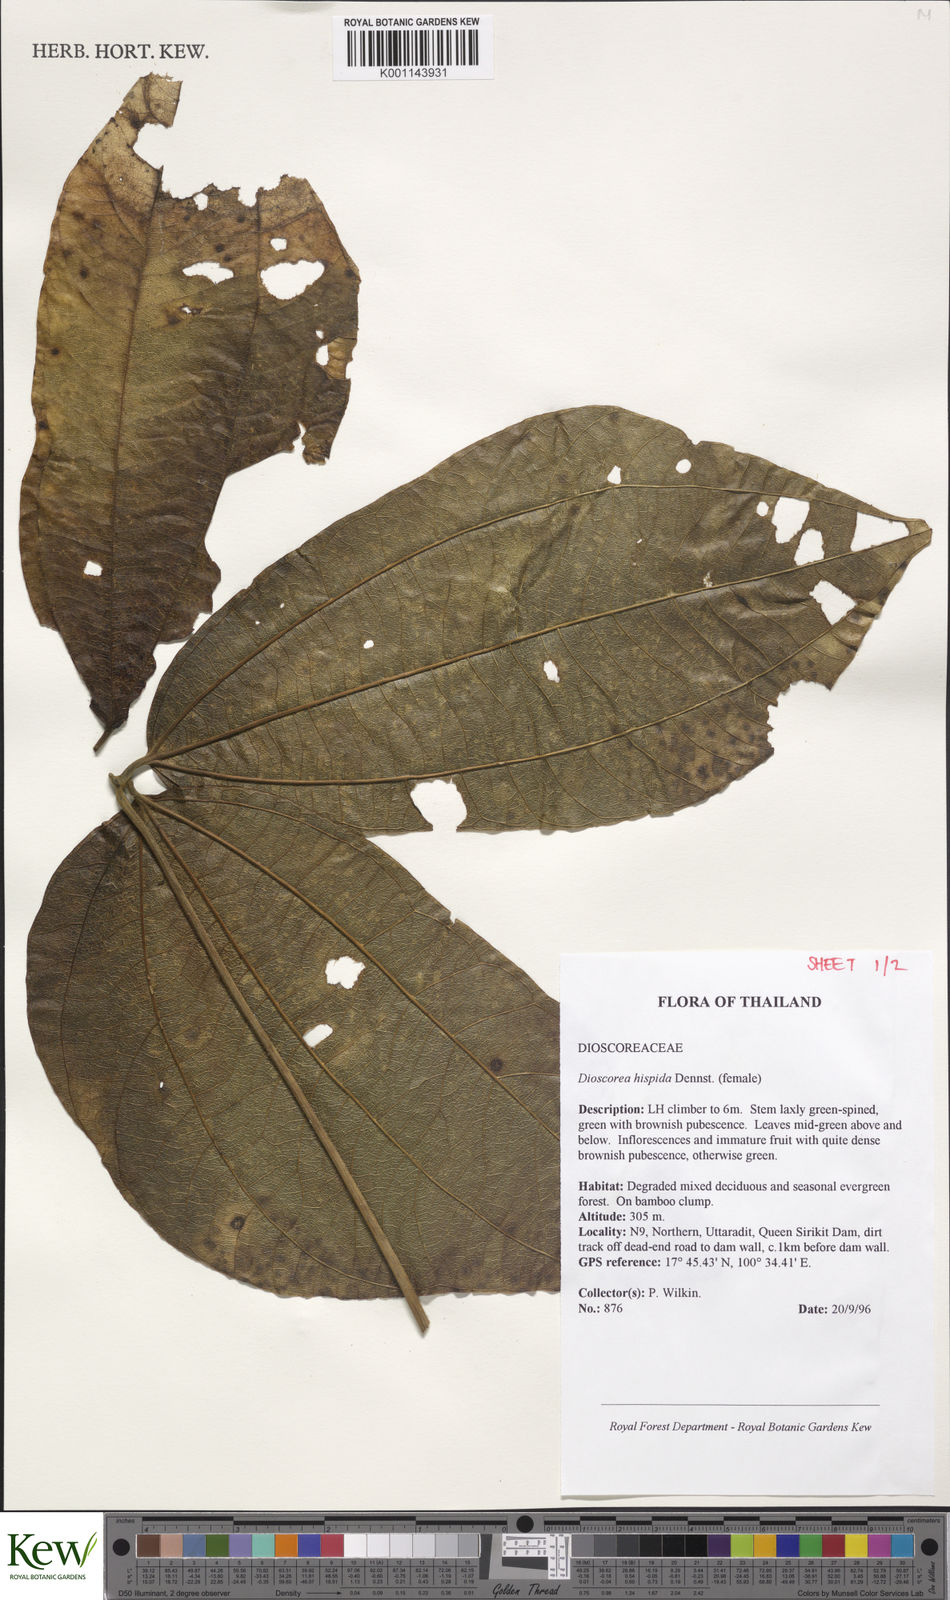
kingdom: Plantae
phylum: Tracheophyta
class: Liliopsida
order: Dioscoreales
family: Dioscoreaceae
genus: Dioscorea
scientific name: Dioscorea hispida
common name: Asiatic bitter yam
